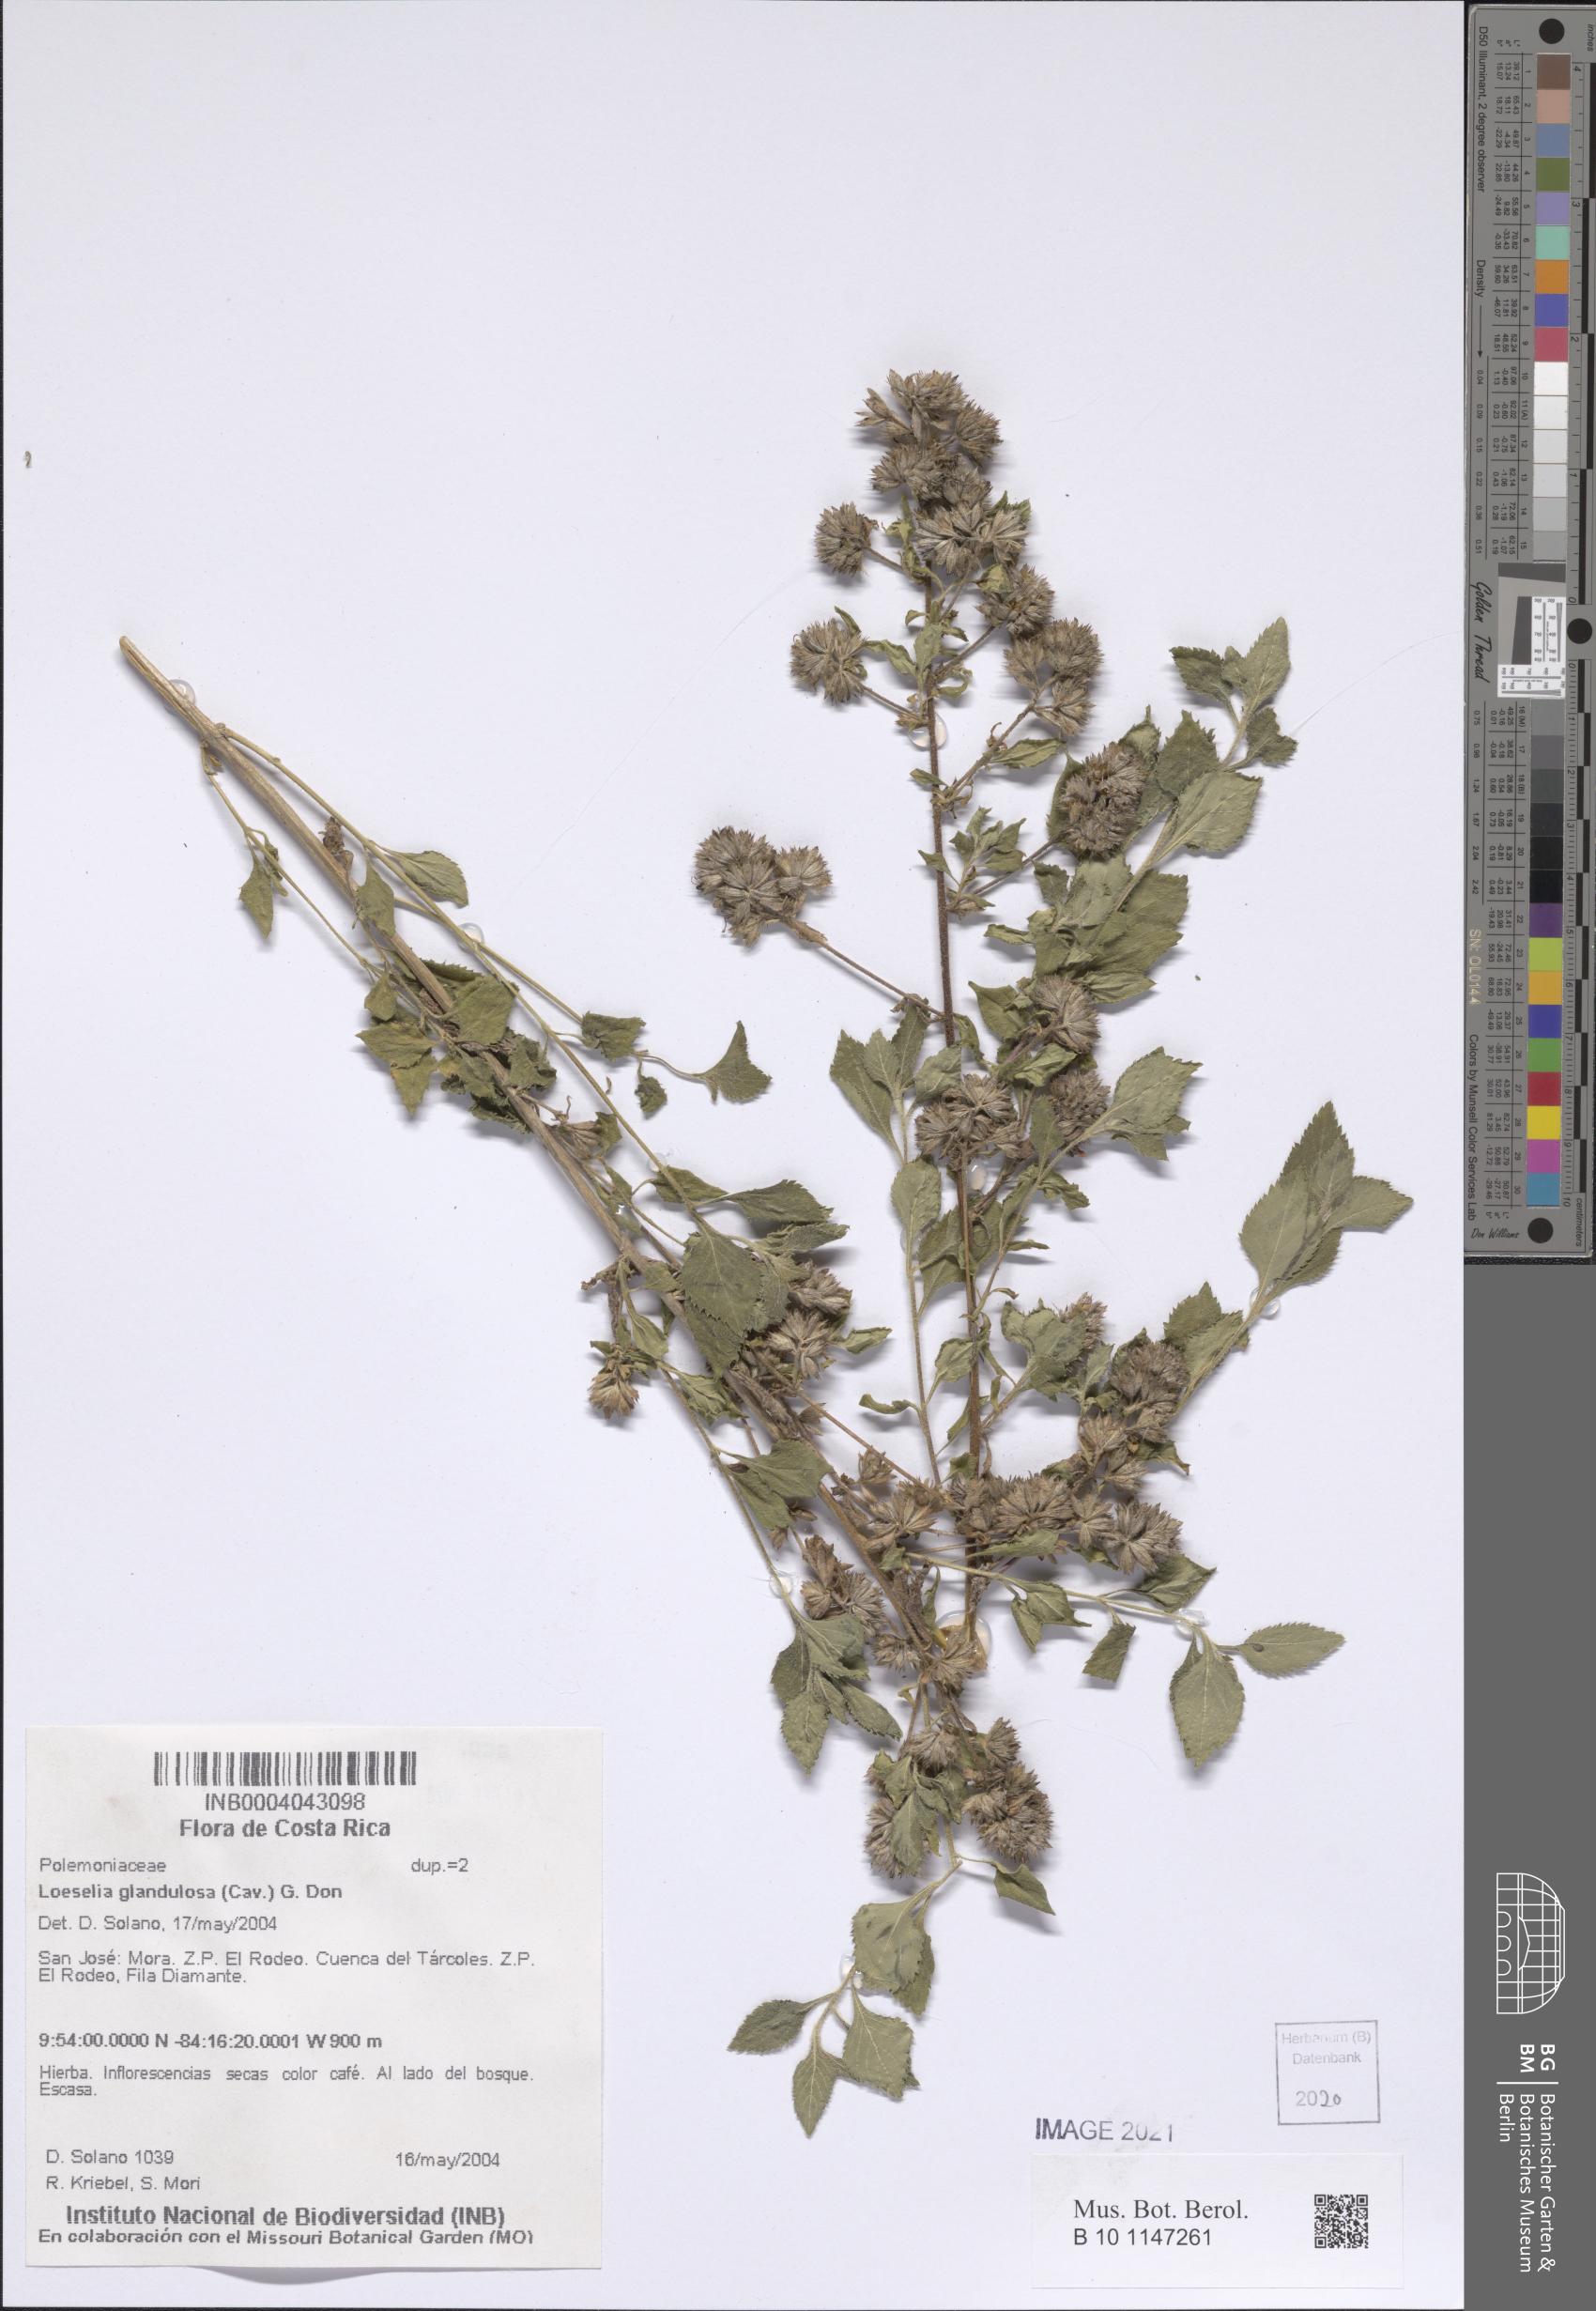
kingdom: Plantae
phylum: Tracheophyta
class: Magnoliopsida
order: Ericales
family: Polemoniaceae
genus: Loeselia
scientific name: Loeselia glandulosa
